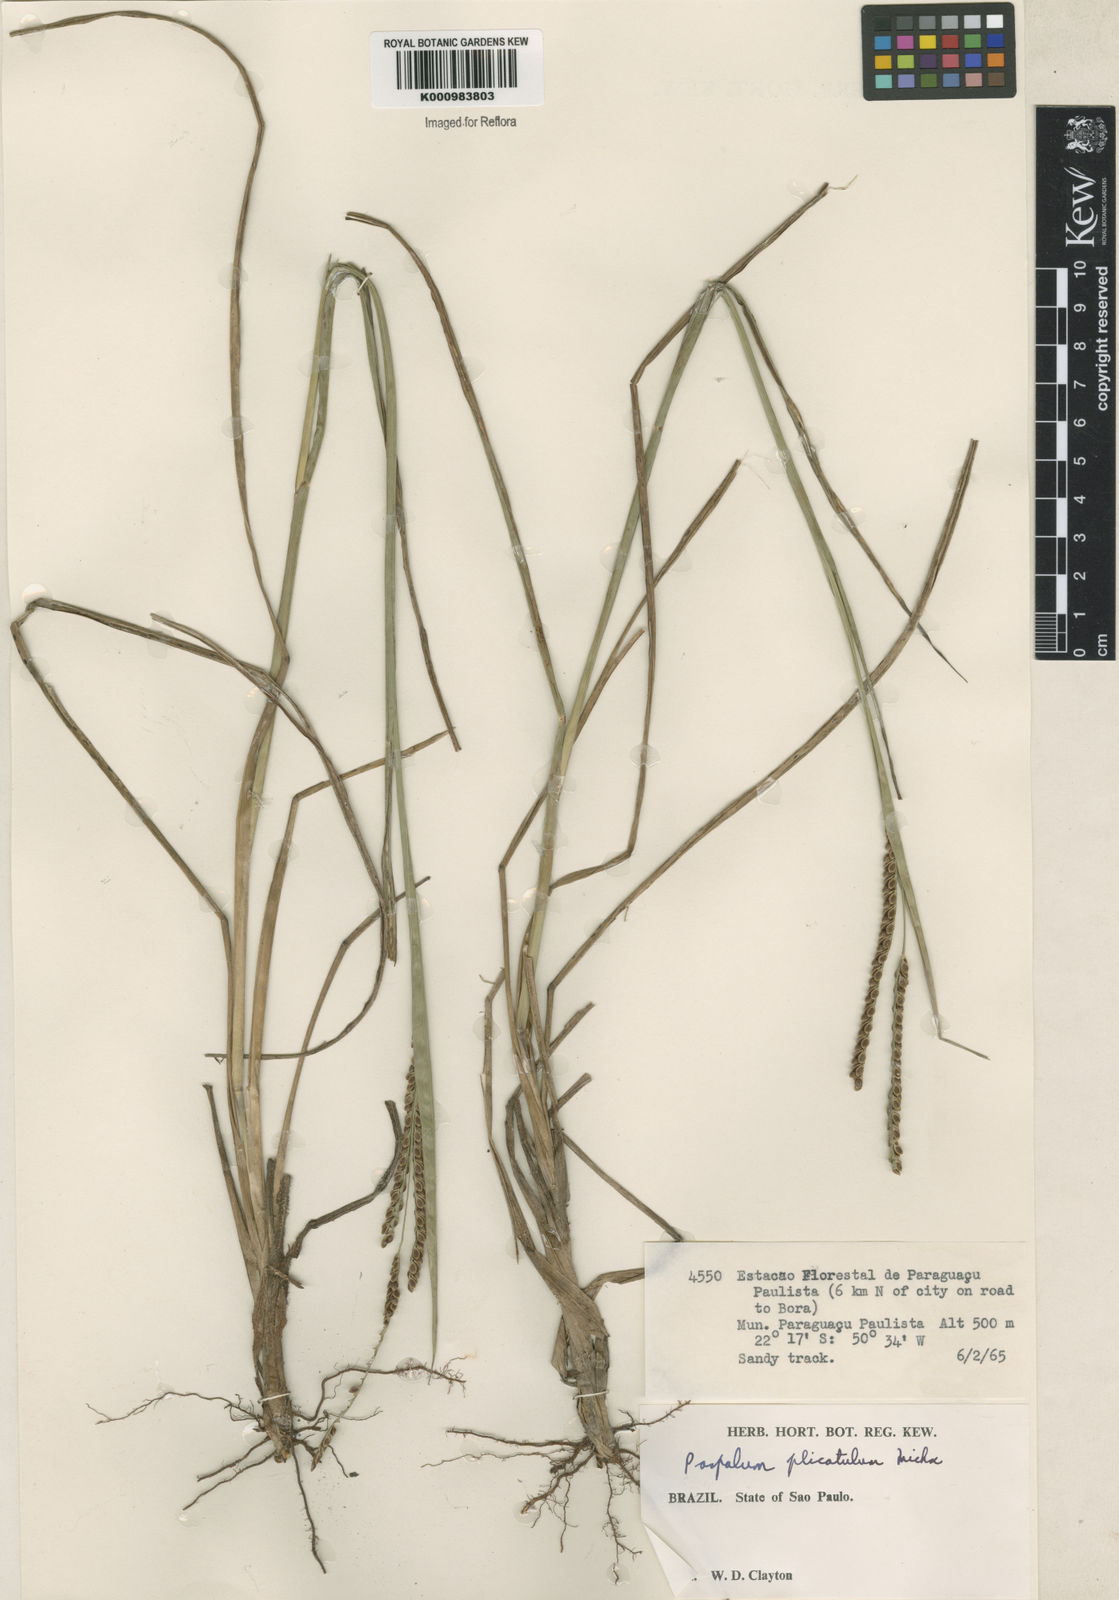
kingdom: Plantae
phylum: Tracheophyta
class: Liliopsida
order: Poales
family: Poaceae
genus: Paspalum
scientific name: Paspalum plicatulum
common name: Top paspalum
